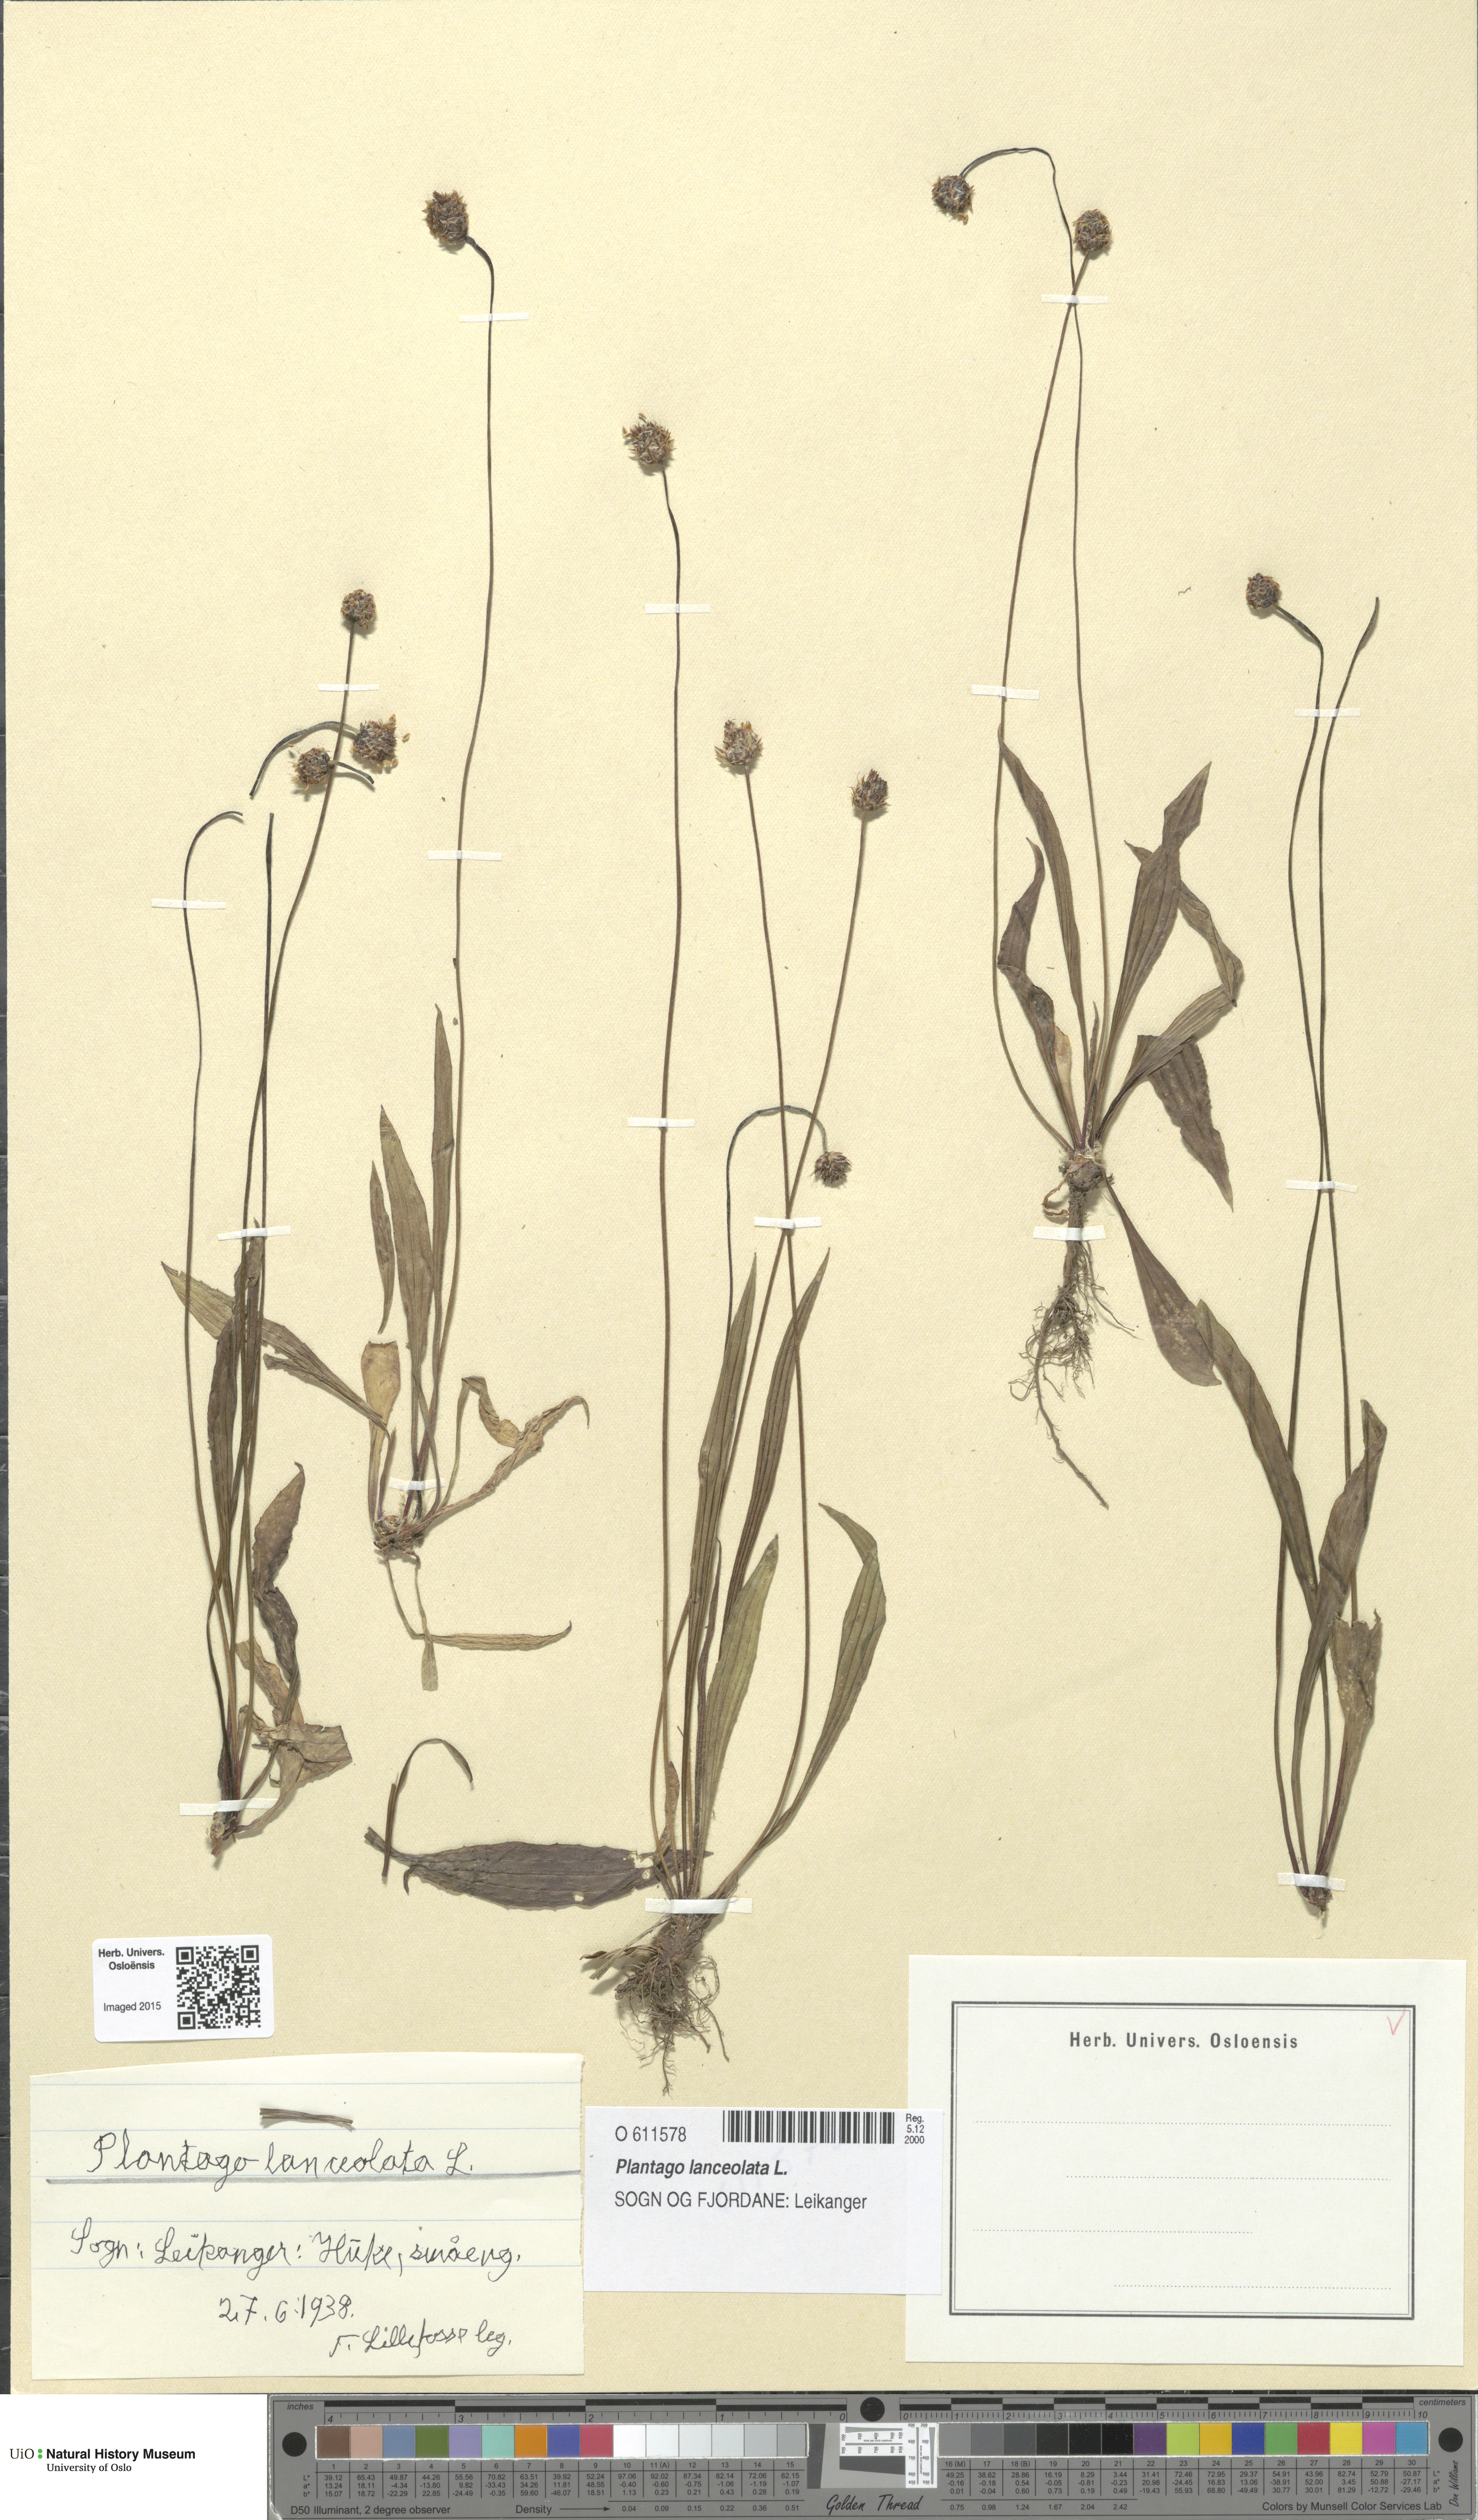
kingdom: Plantae
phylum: Tracheophyta
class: Magnoliopsida
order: Lamiales
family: Plantaginaceae
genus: Plantago
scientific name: Plantago lanceolata
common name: Ribwort plantain
